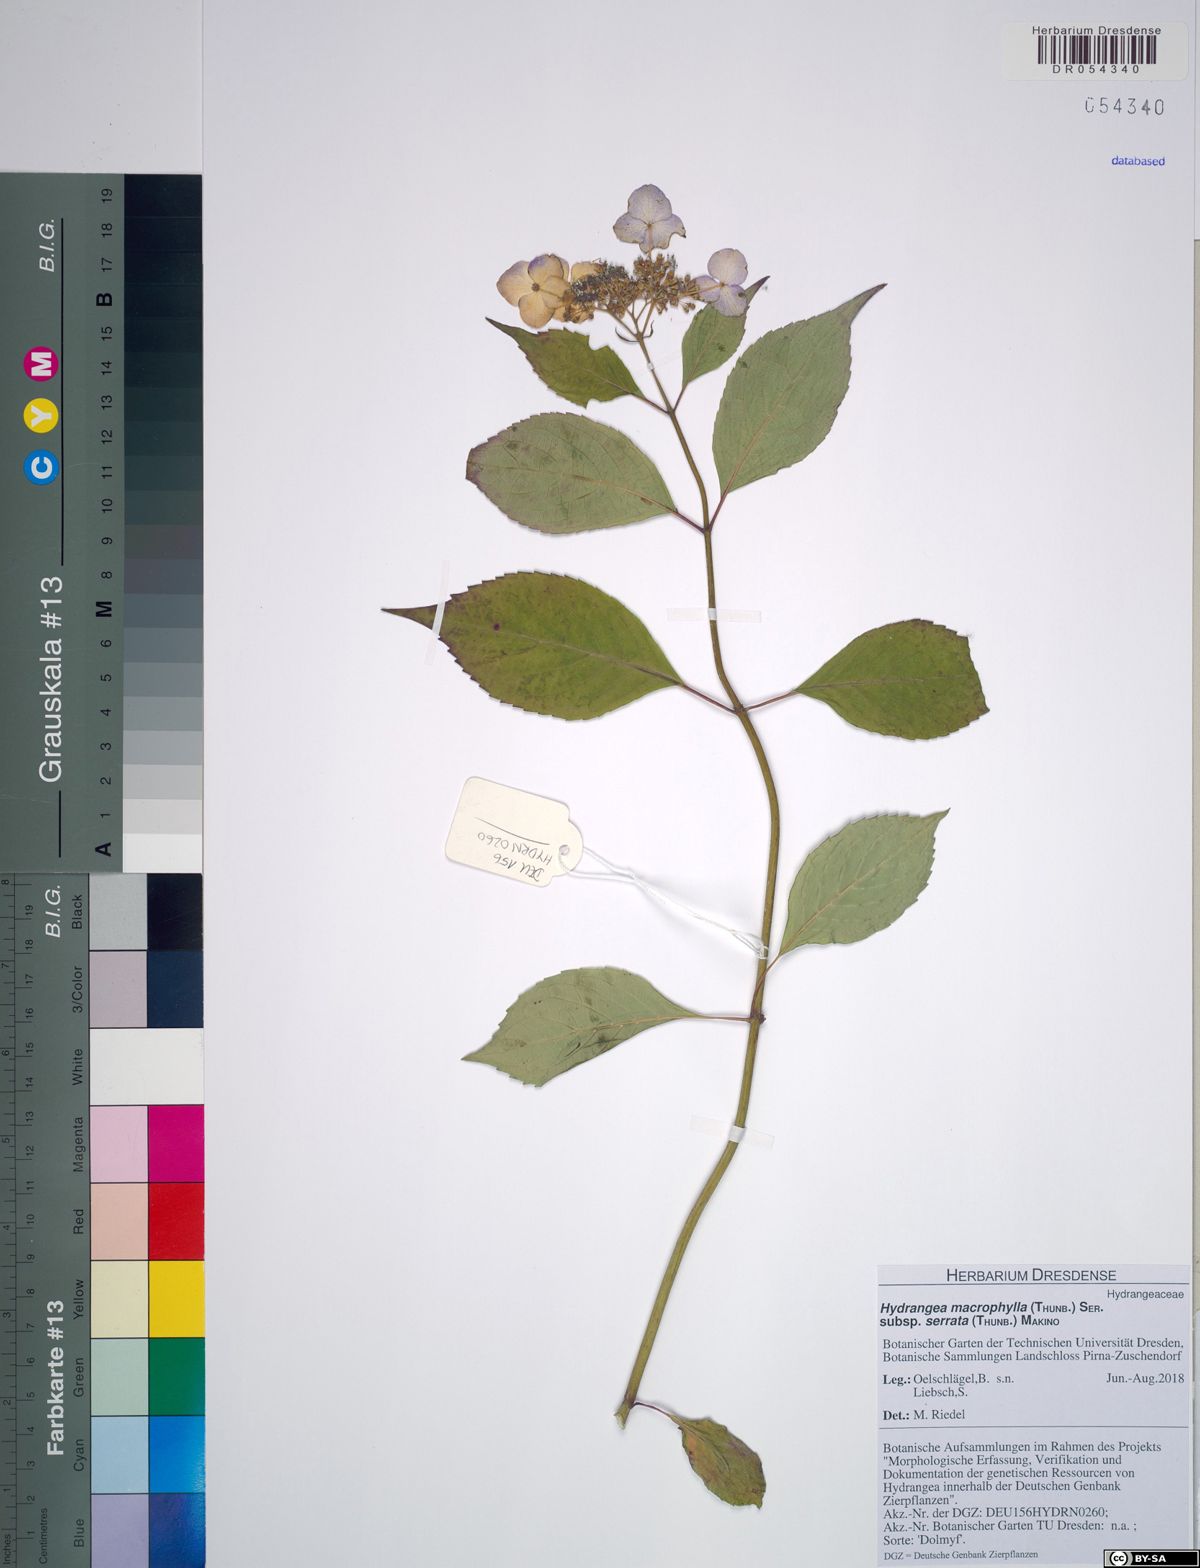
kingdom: Plantae
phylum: Tracheophyta
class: Magnoliopsida
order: Cornales
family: Hydrangeaceae
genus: Hydrangea
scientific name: Hydrangea serrata
